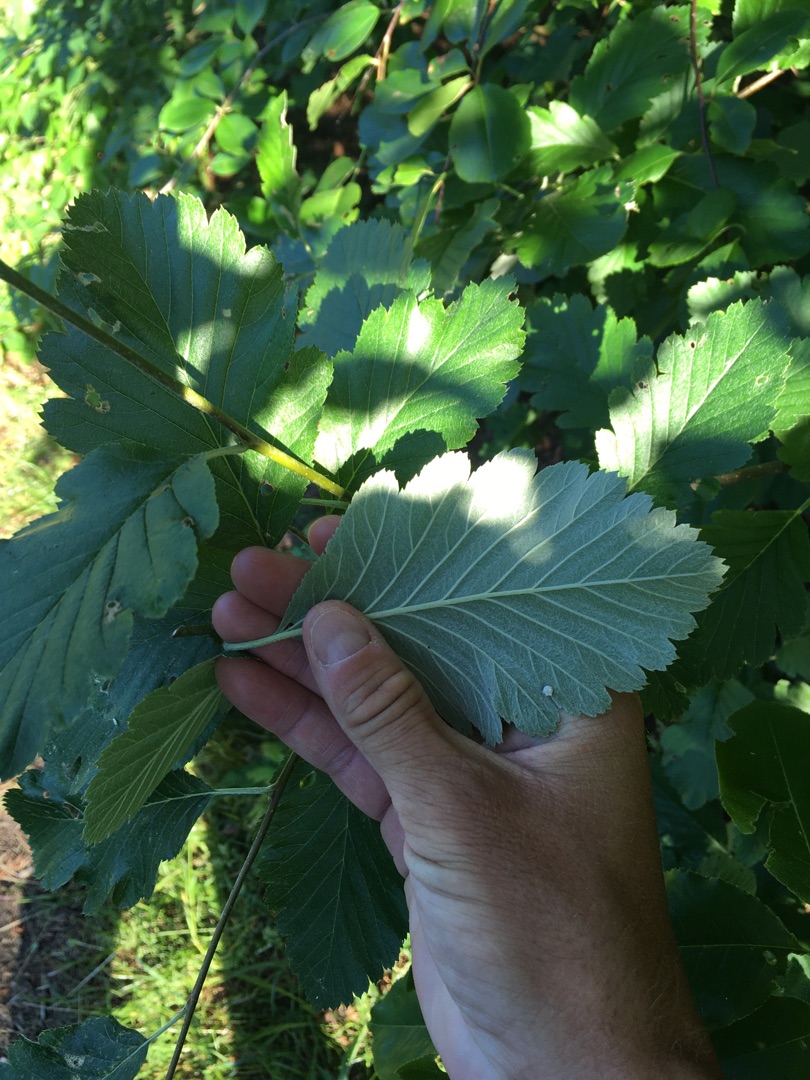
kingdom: Plantae
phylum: Tracheophyta
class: Magnoliopsida
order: Rosales
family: Rosaceae
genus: Hedlundia
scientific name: Hedlundia austriaca
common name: Østrigsk røn
